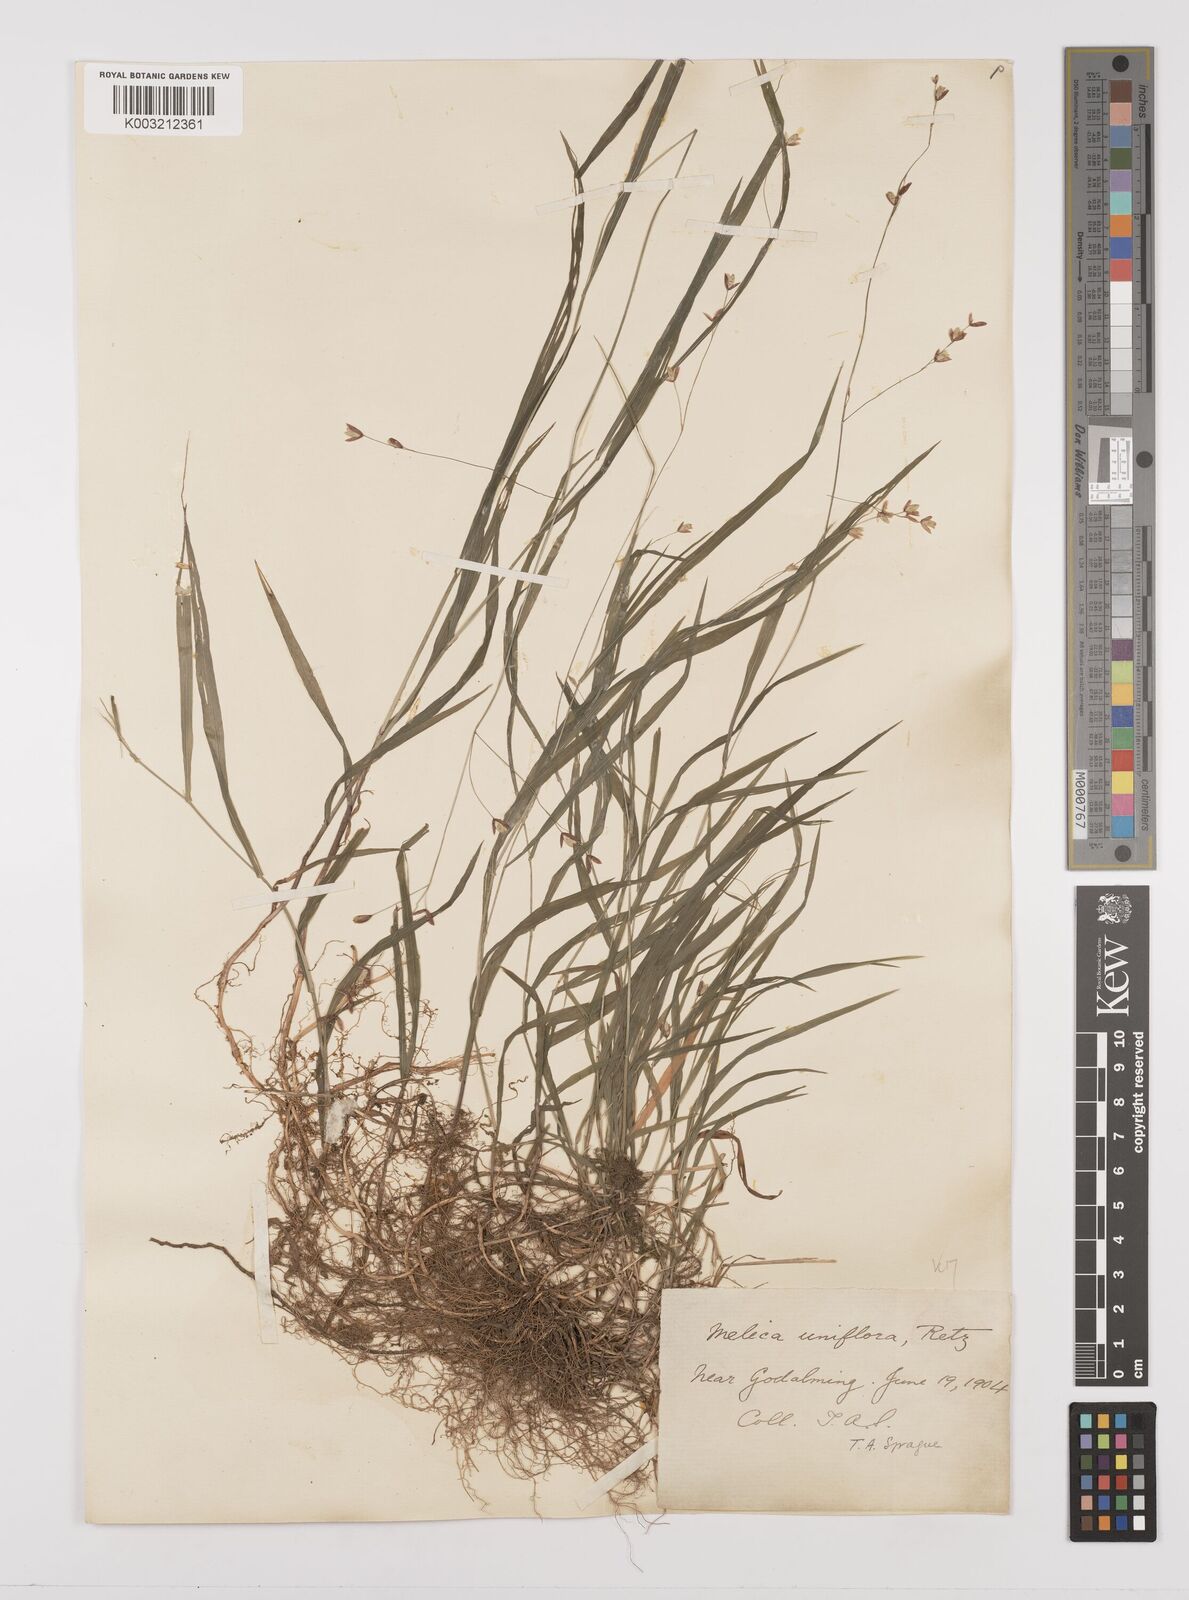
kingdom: Plantae
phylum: Tracheophyta
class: Liliopsida
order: Poales
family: Poaceae
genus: Melica
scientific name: Melica uniflora
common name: Wood melick
